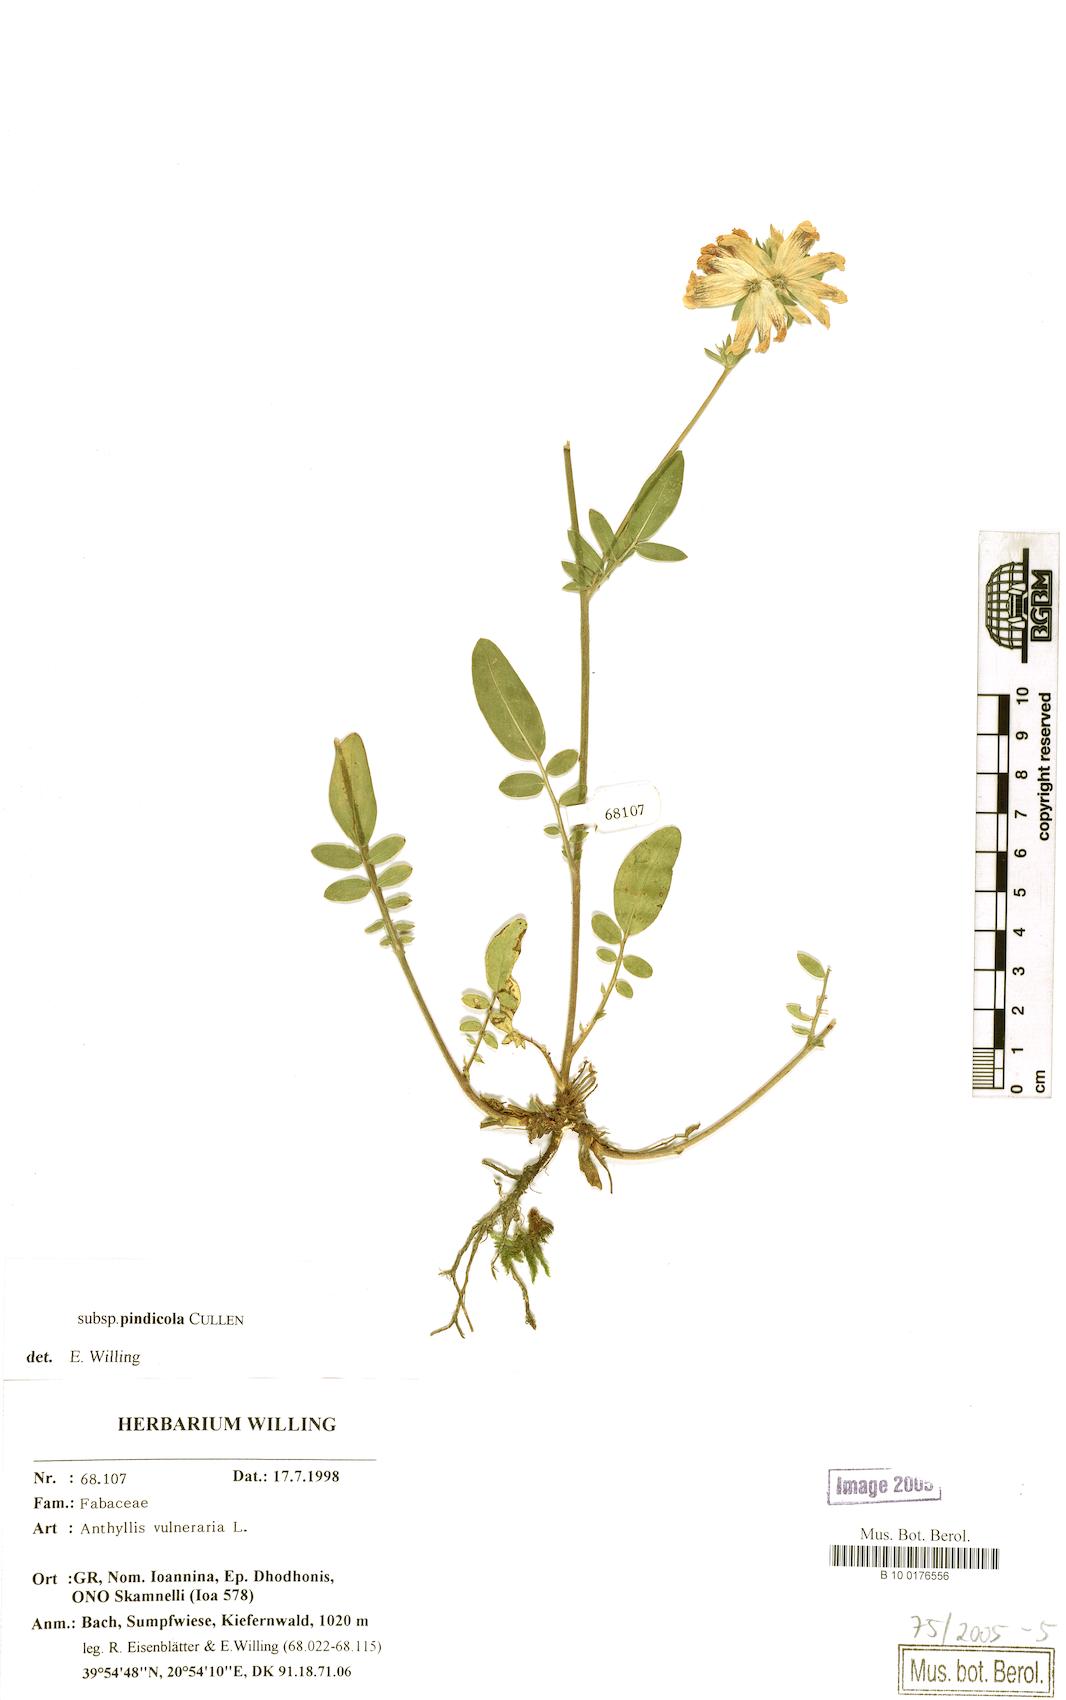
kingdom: Plantae
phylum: Tracheophyta
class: Magnoliopsida
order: Fabales
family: Fabaceae
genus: Anthyllis
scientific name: Anthyllis vulneraria
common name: Kidney vetch
